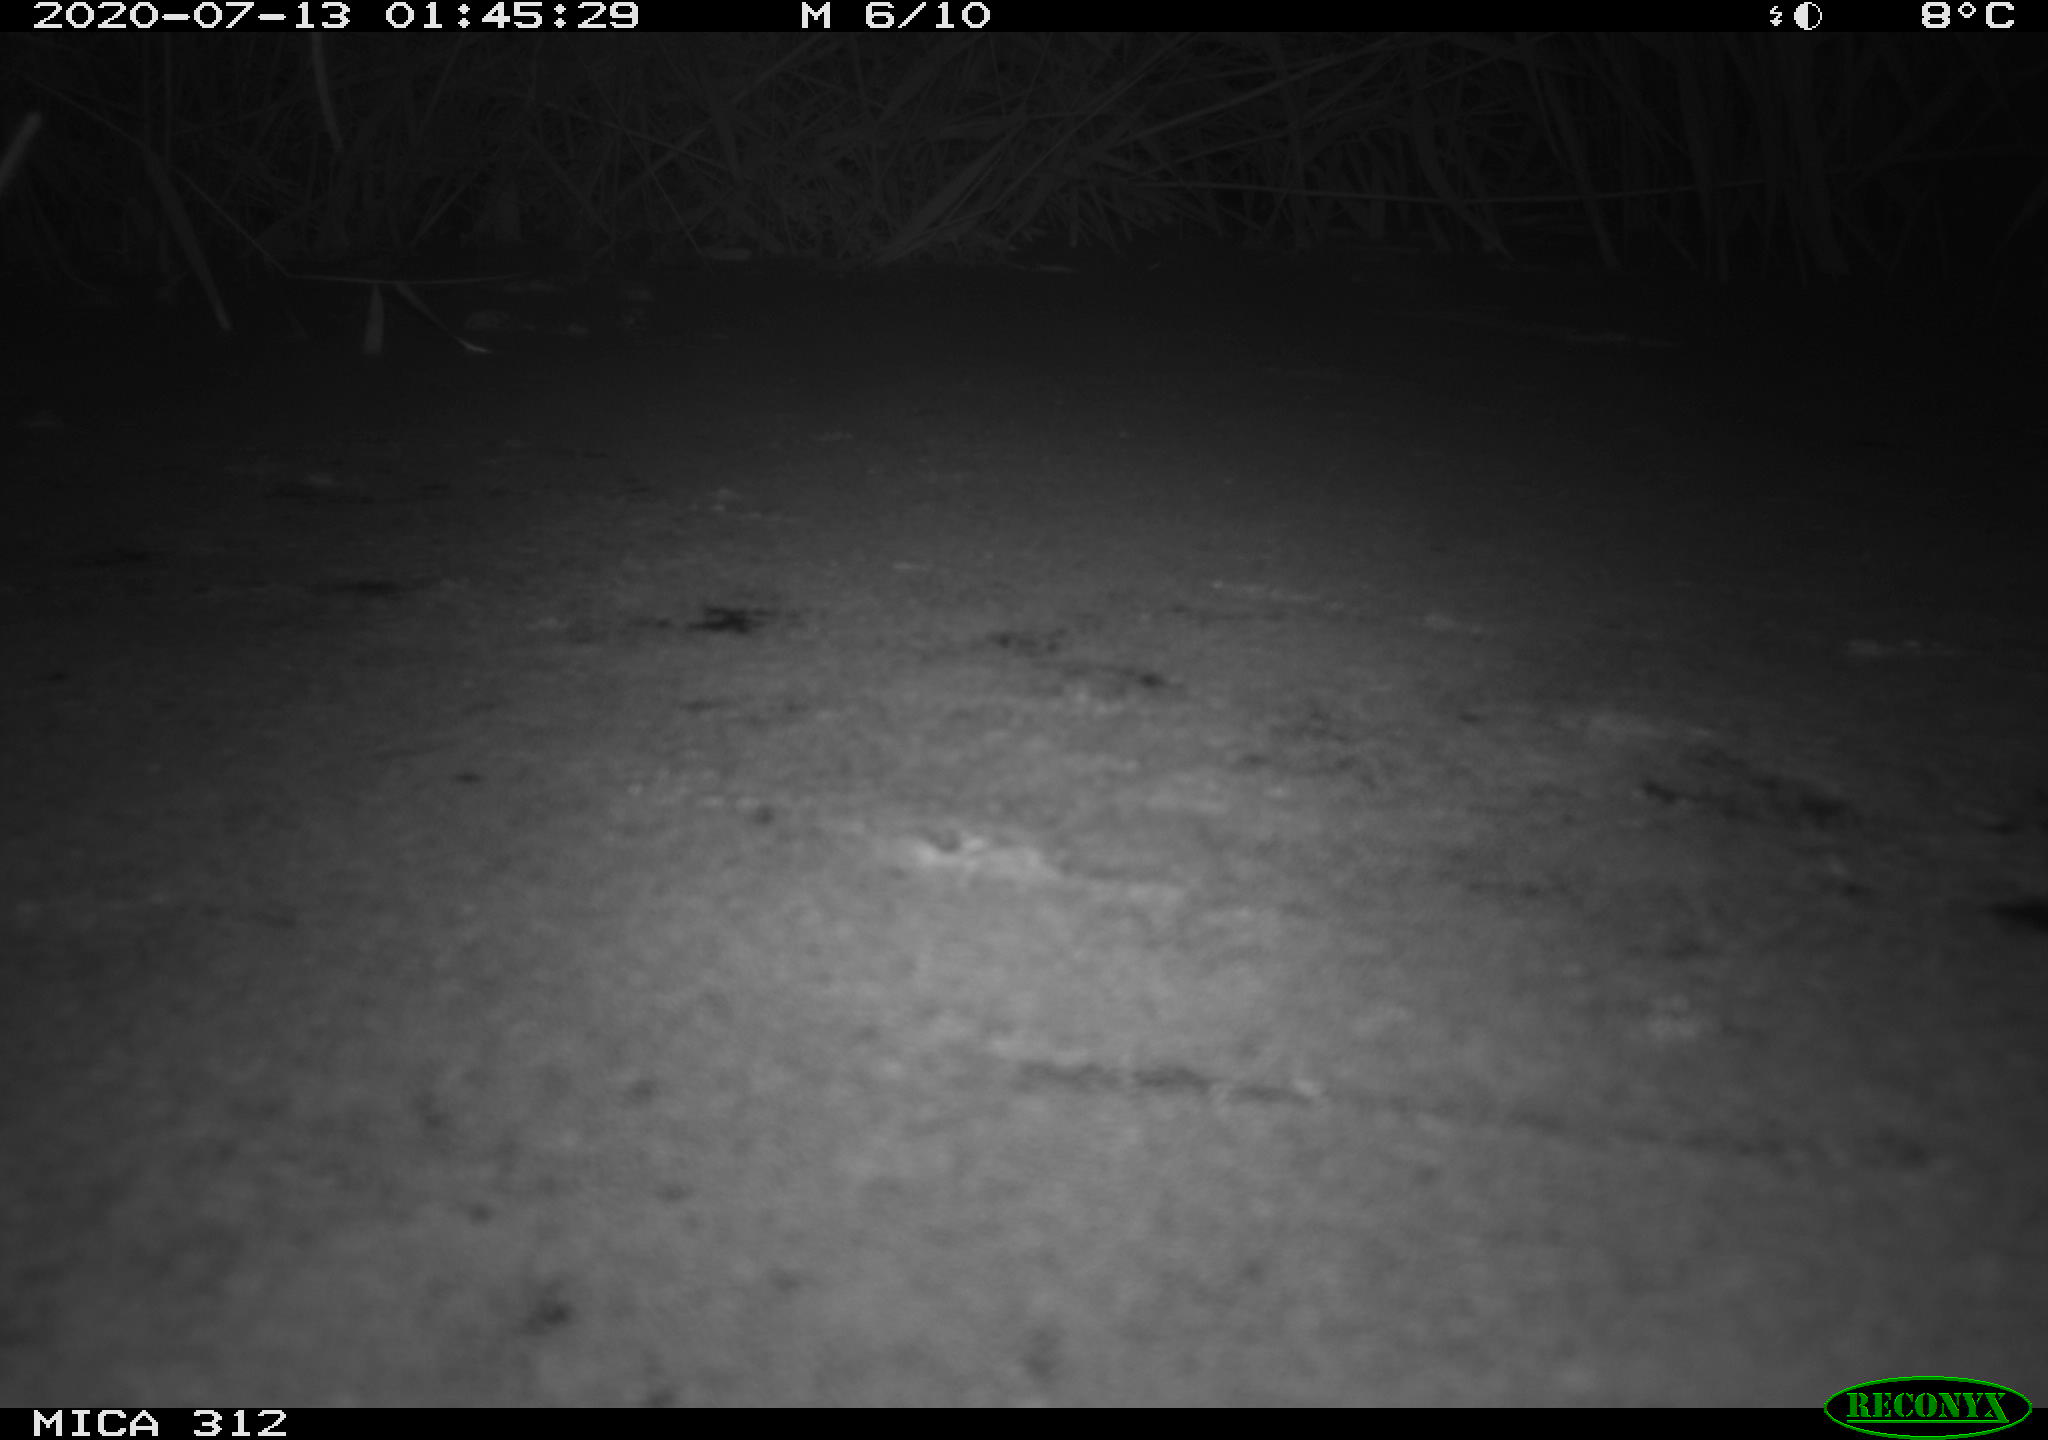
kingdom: Animalia
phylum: Chordata
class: Mammalia
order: Rodentia
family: Muridae
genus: Rattus
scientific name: Rattus norvegicus
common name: Brown rat
